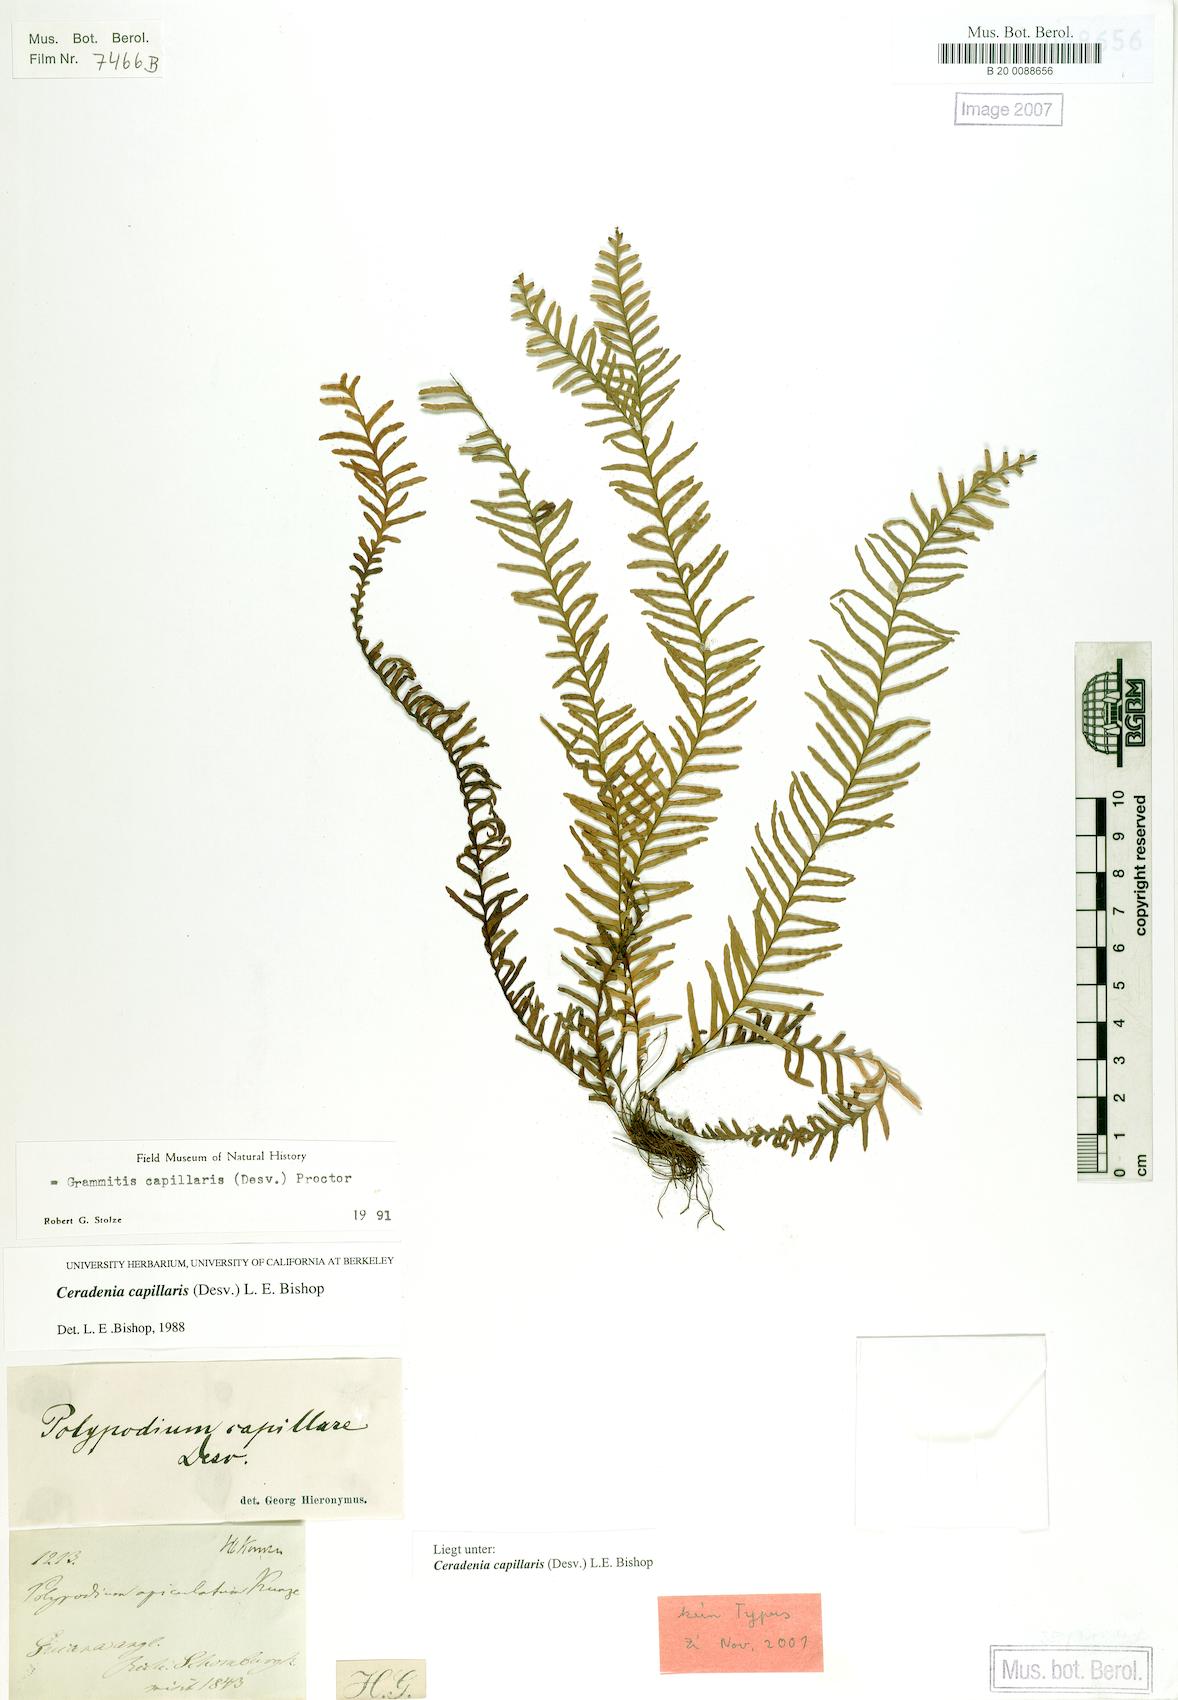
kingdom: Plantae
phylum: Tracheophyta
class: Polypodiopsida
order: Polypodiales
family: Polypodiaceae
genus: Ceradenia
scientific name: Ceradenia capillaris
